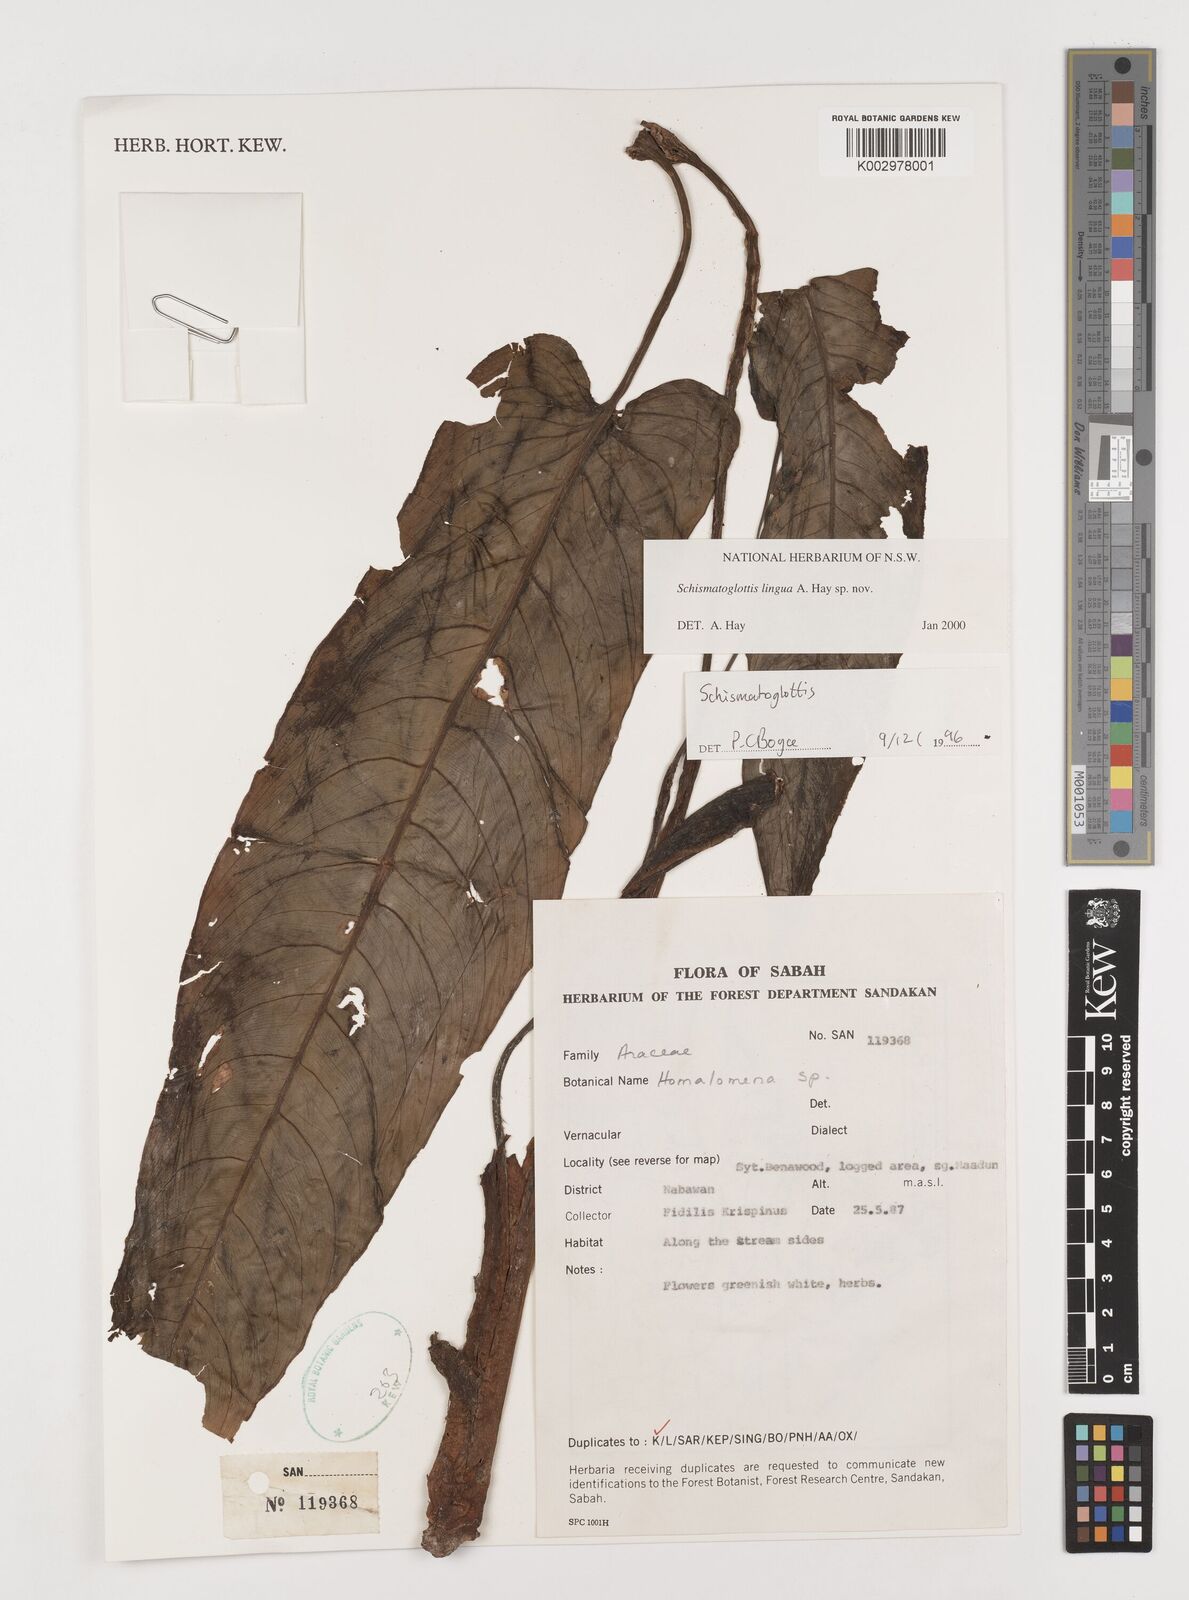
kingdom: Plantae
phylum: Tracheophyta
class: Liliopsida
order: Alismatales
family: Araceae
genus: Schismatoglottis
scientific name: Schismatoglottis lingua
